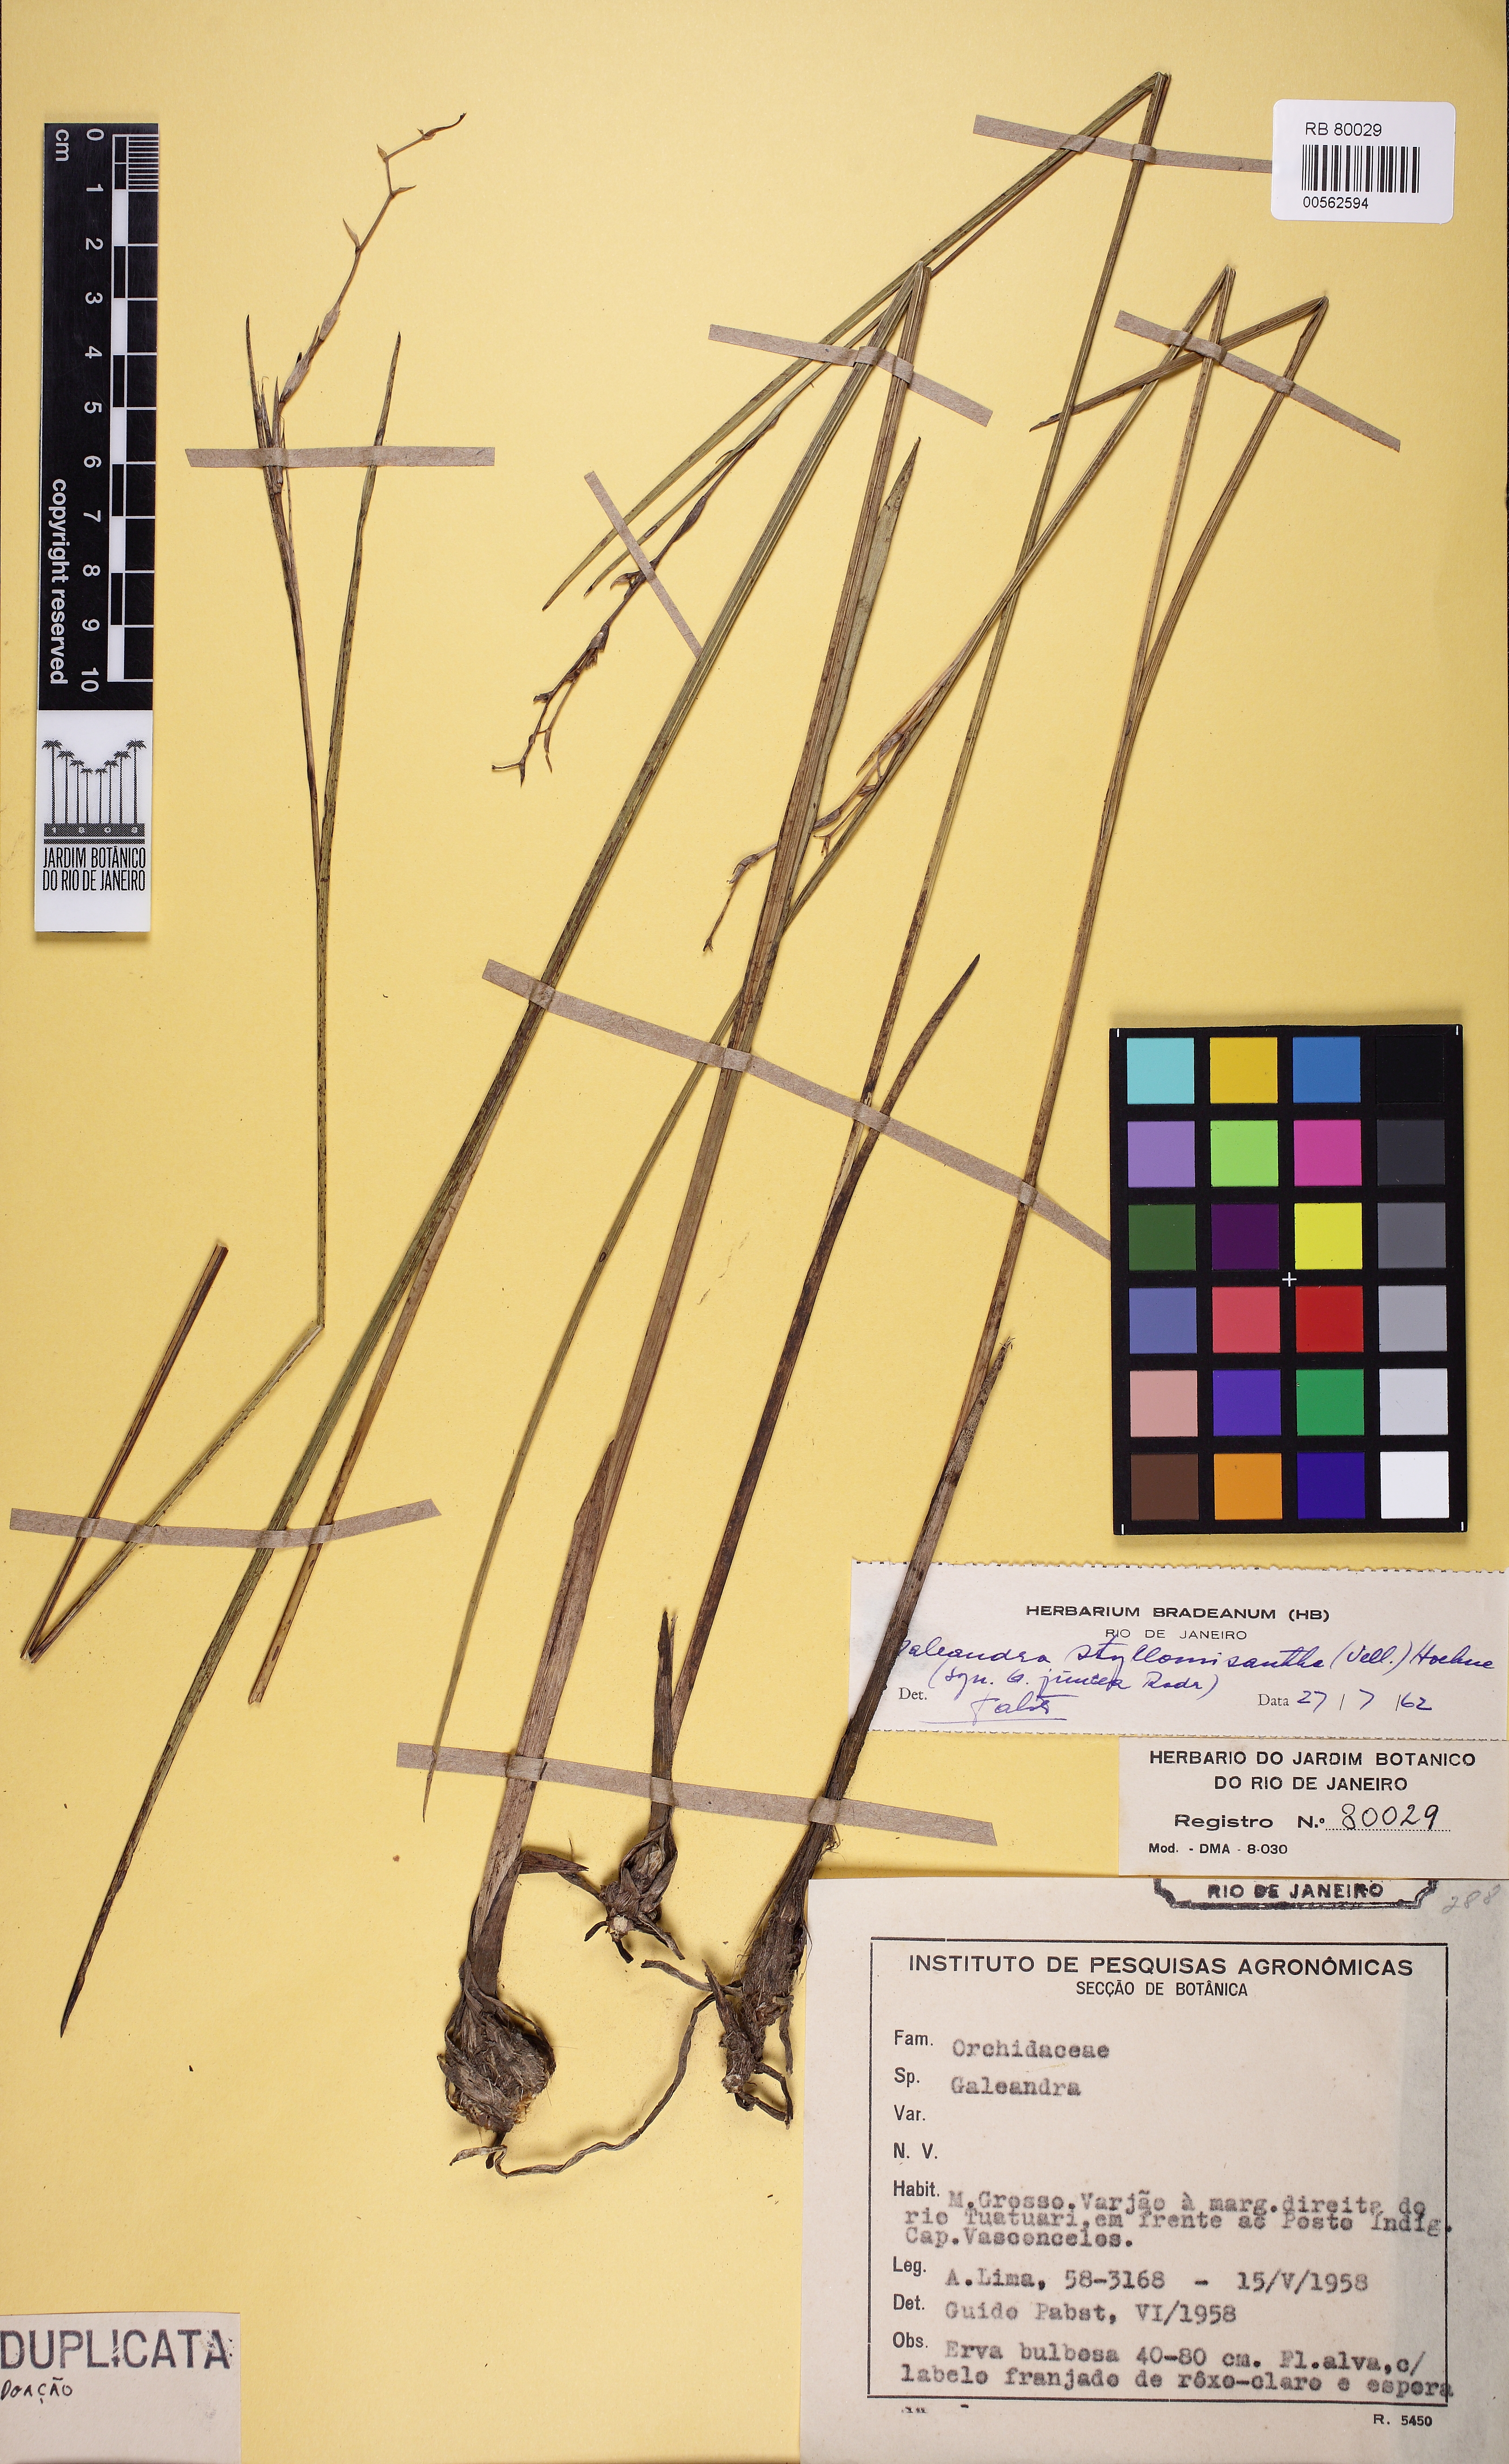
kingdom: Plantae
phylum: Tracheophyta
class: Liliopsida
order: Asparagales
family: Orchidaceae
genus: Galeandra
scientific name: Galeandra styllomisantha
